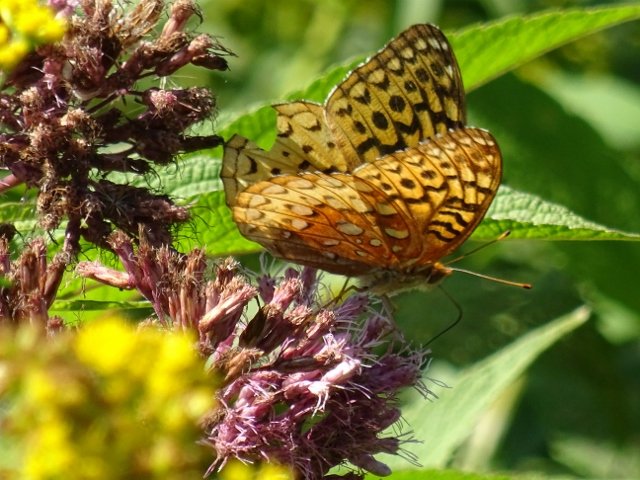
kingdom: Animalia
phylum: Arthropoda
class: Insecta
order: Lepidoptera
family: Nymphalidae
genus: Speyeria
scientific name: Speyeria cybele
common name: Great Spangled Fritillary
